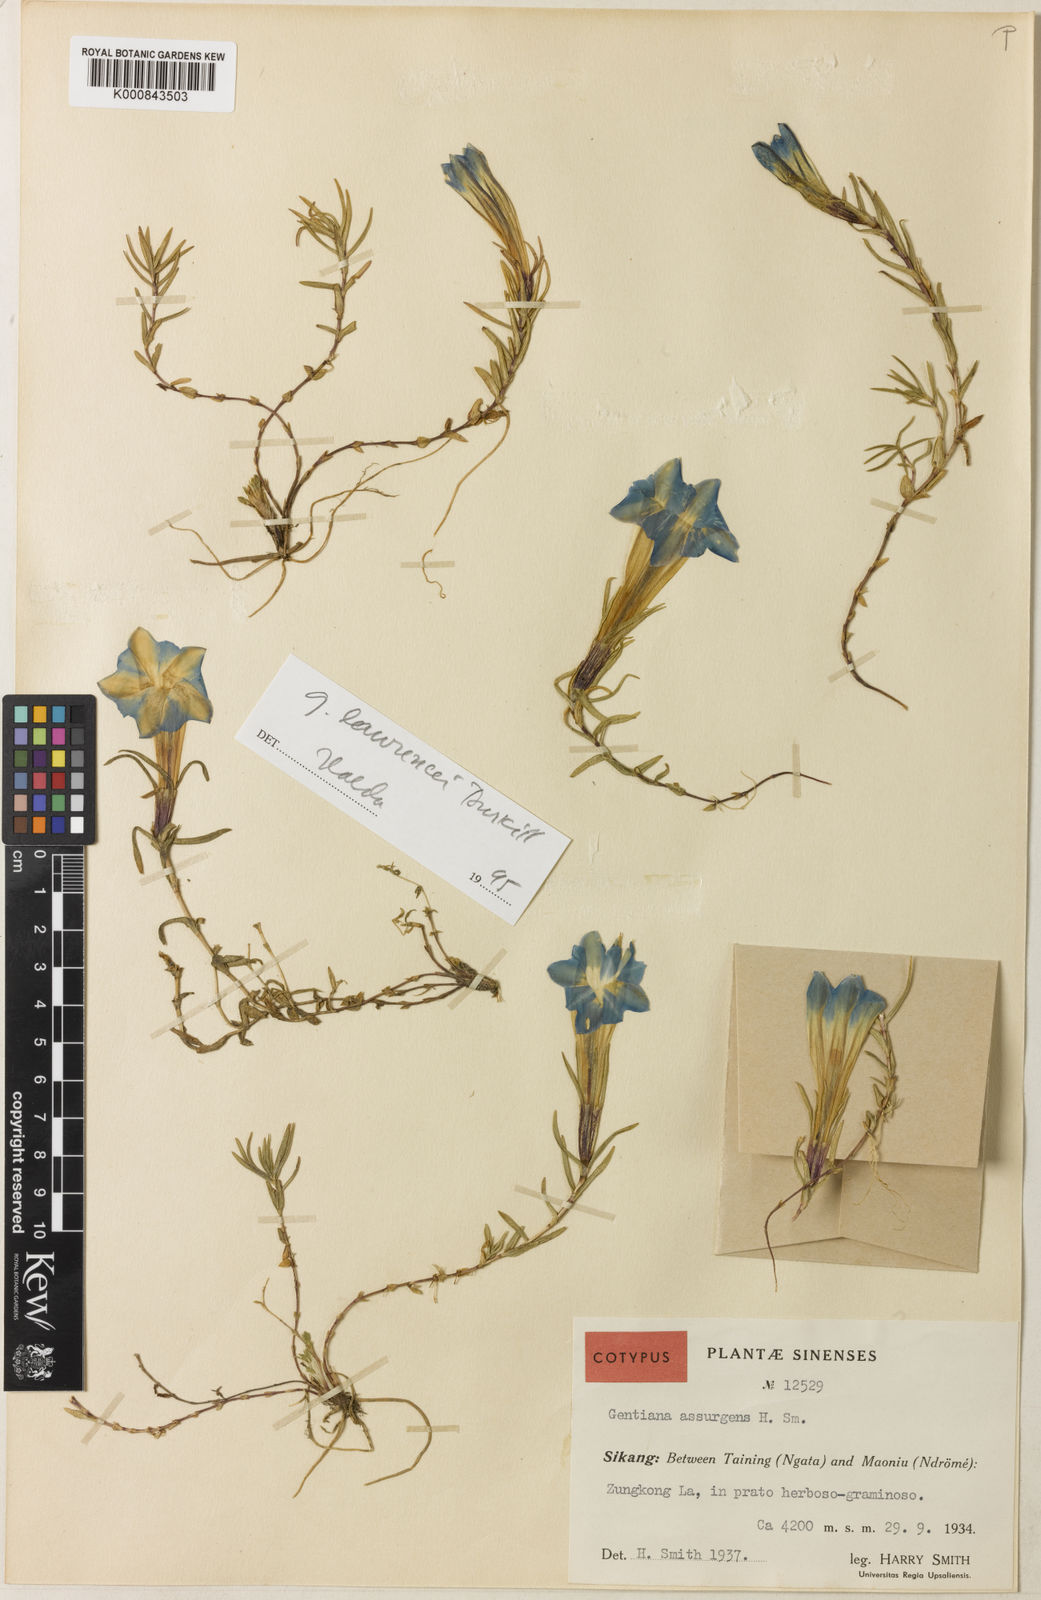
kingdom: Plantae
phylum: Tracheophyta
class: Magnoliopsida
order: Gentianales
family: Gentianaceae
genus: Gentiana
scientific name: Gentiana
